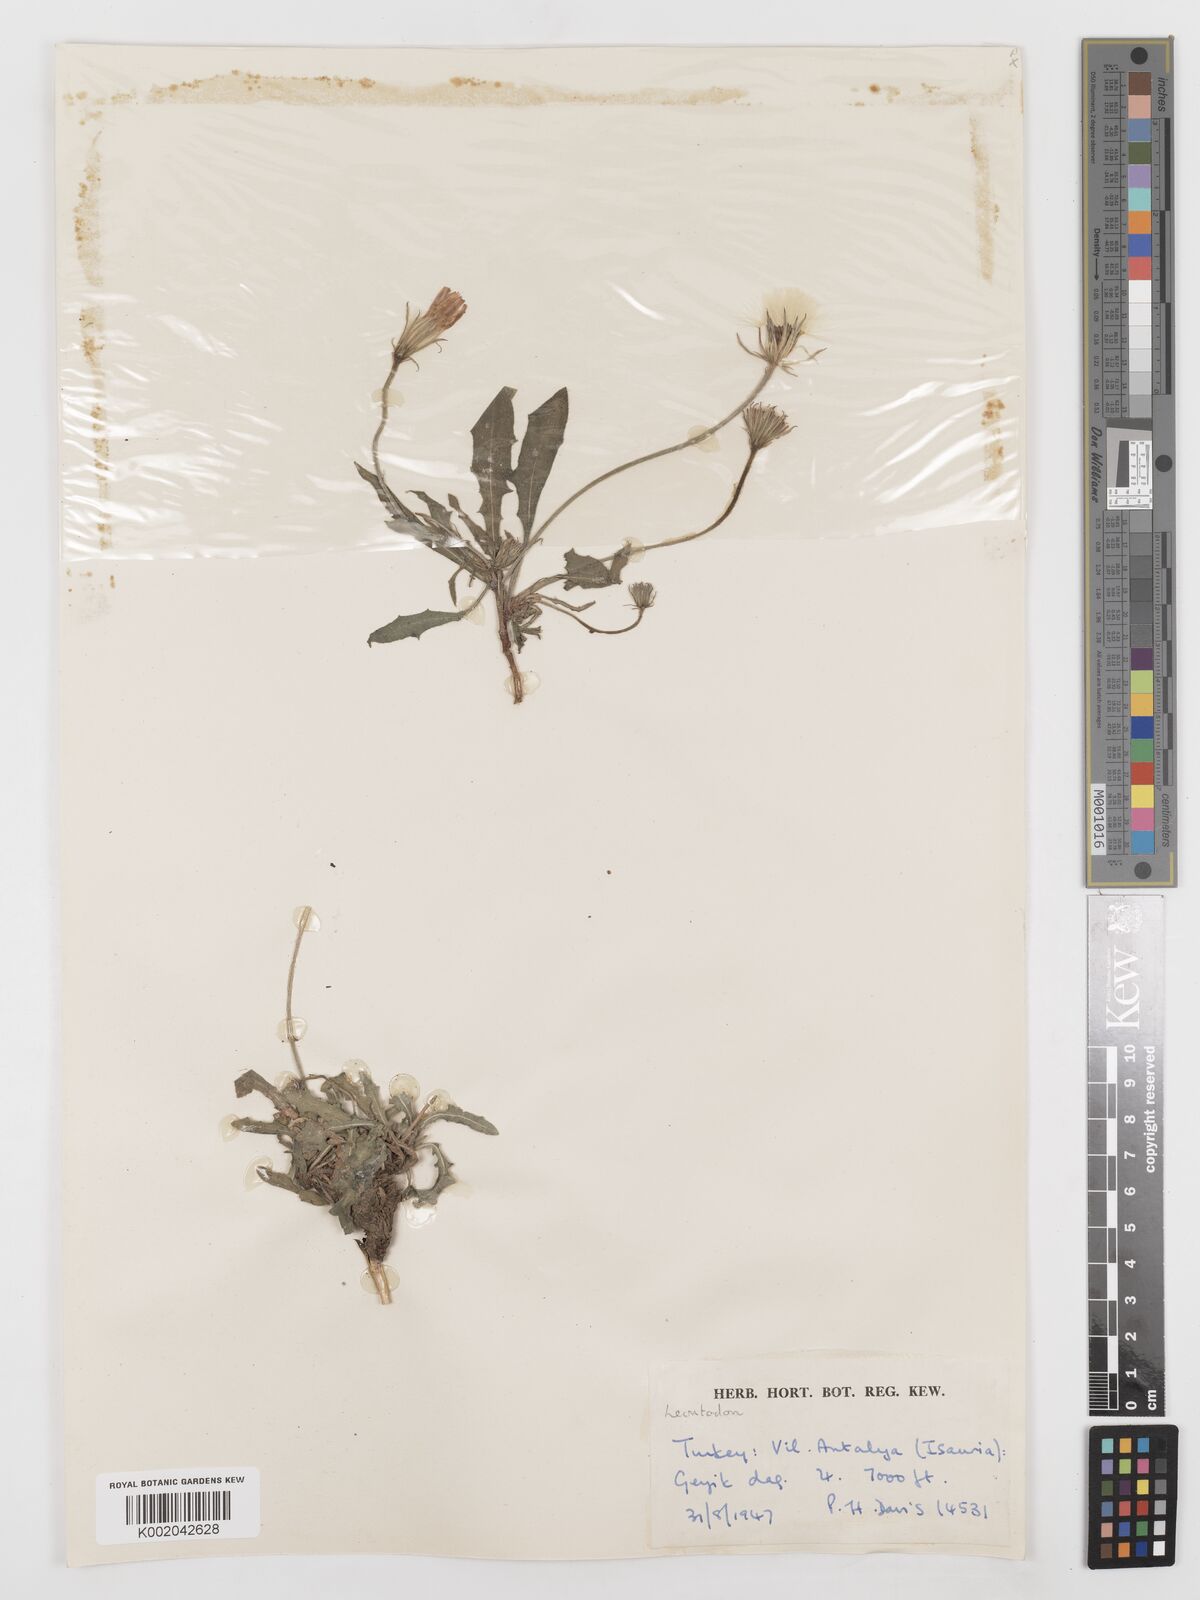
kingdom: Plantae
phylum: Tracheophyta
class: Magnoliopsida
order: Asterales
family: Asteraceae
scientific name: Asteraceae
